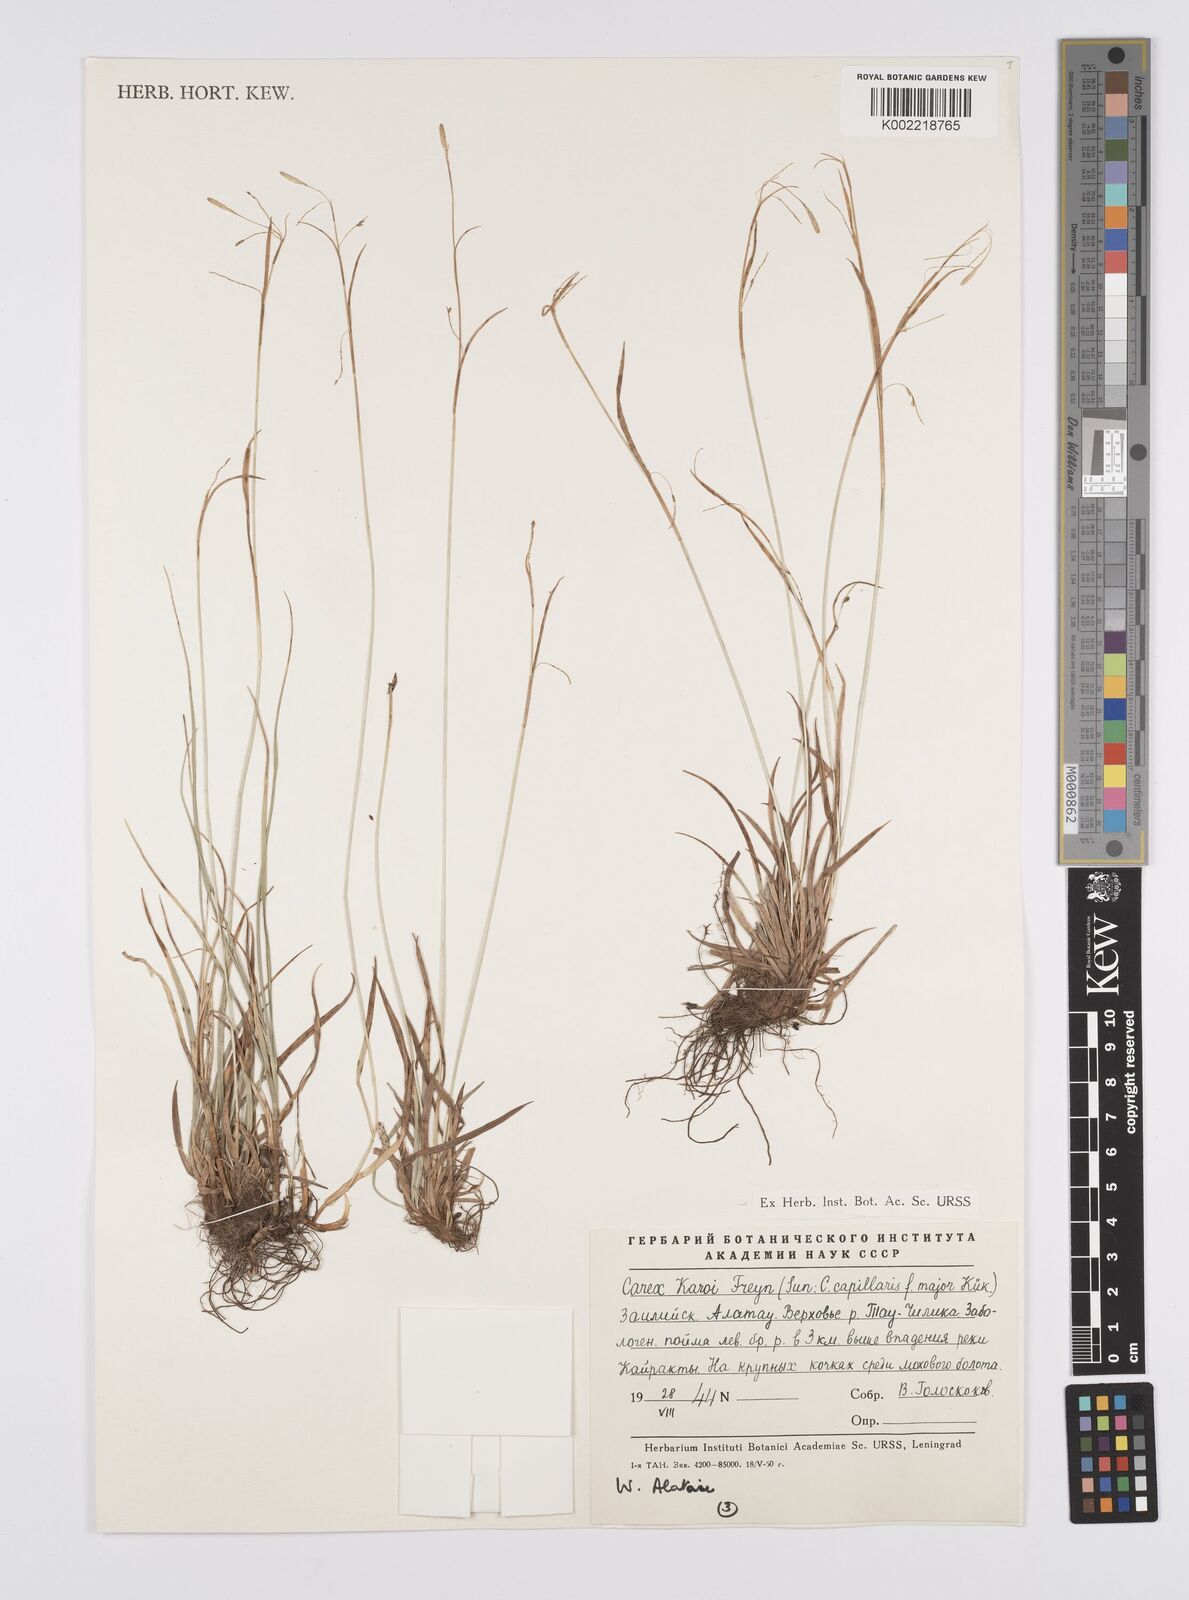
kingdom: Plantae
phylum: Tracheophyta
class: Liliopsida
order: Poales
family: Cyperaceae
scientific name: Cyperaceae
